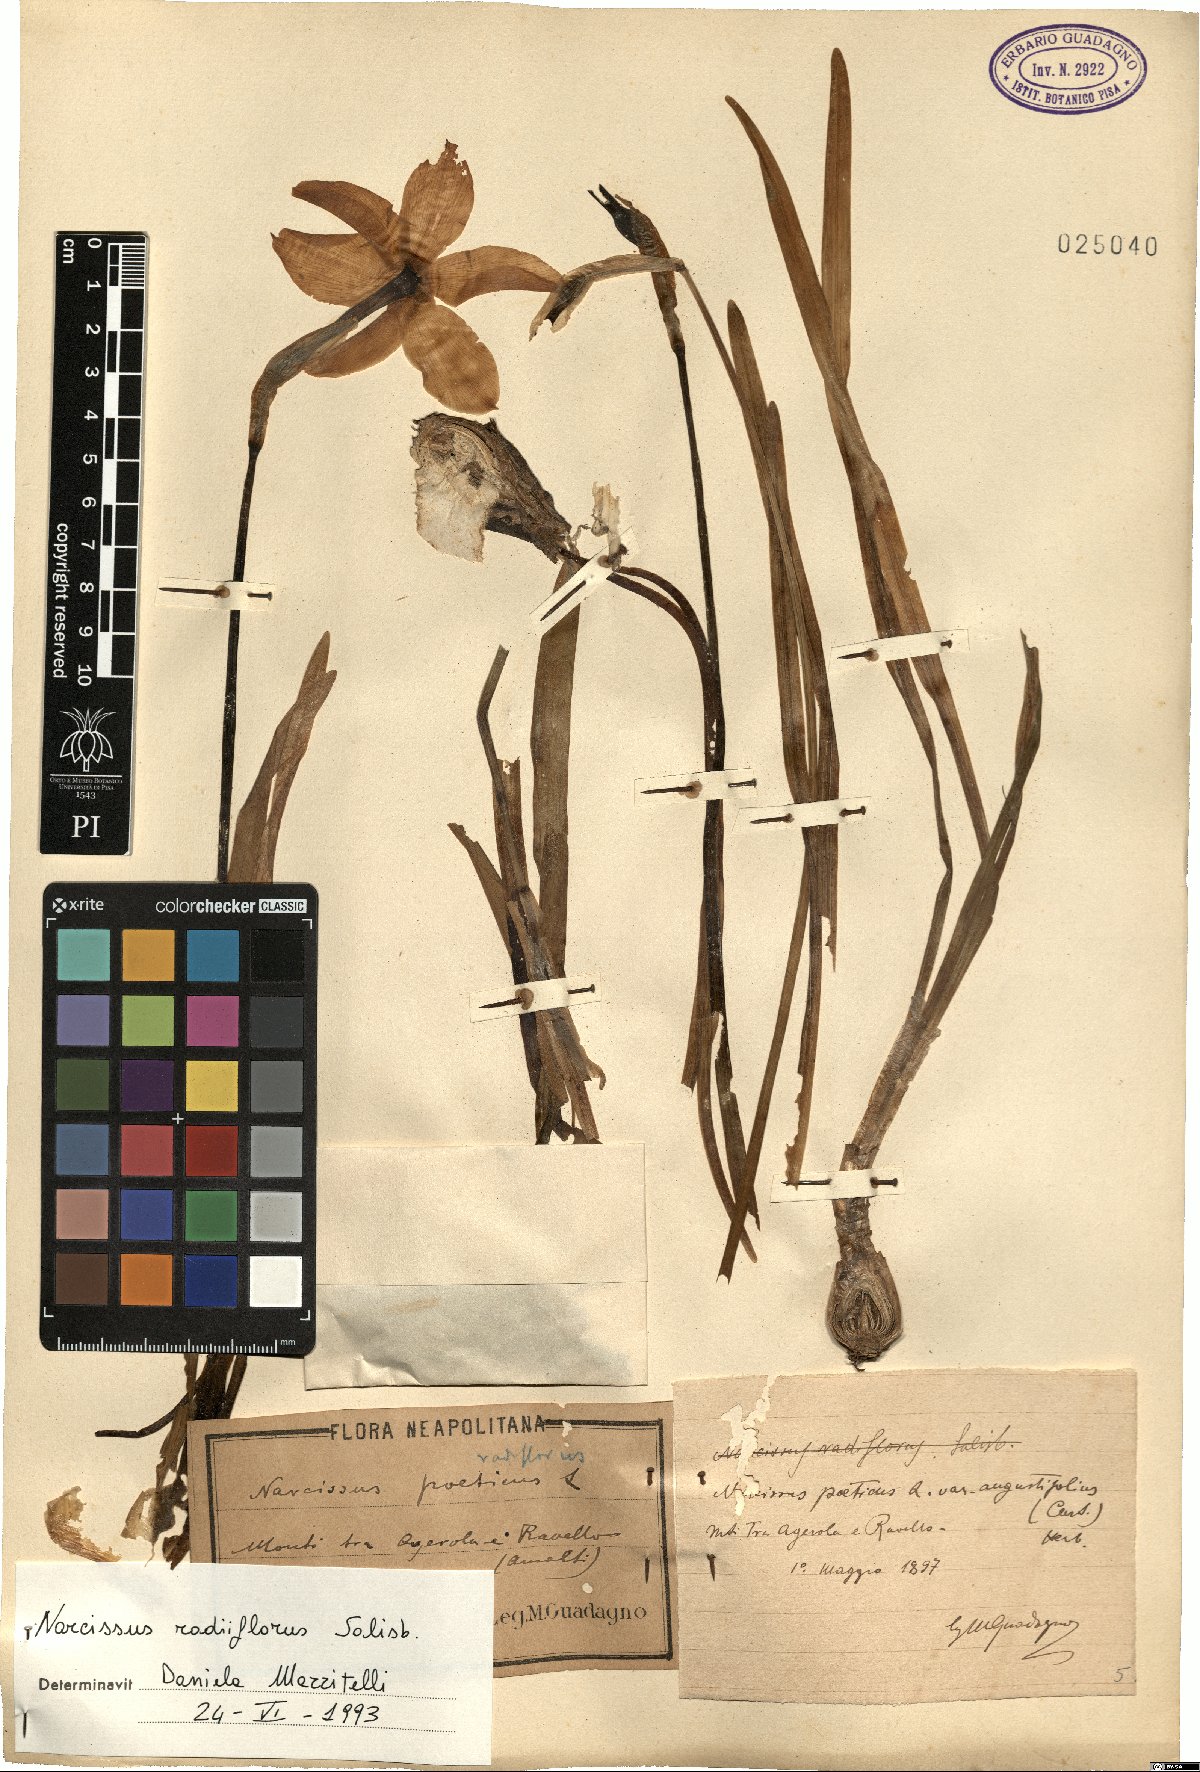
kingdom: Plantae
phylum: Tracheophyta
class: Liliopsida
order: Asparagales
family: Amaryllidaceae
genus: Narcissus
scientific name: Narcissus poeticus
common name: Pheasant's-eye daffodil
